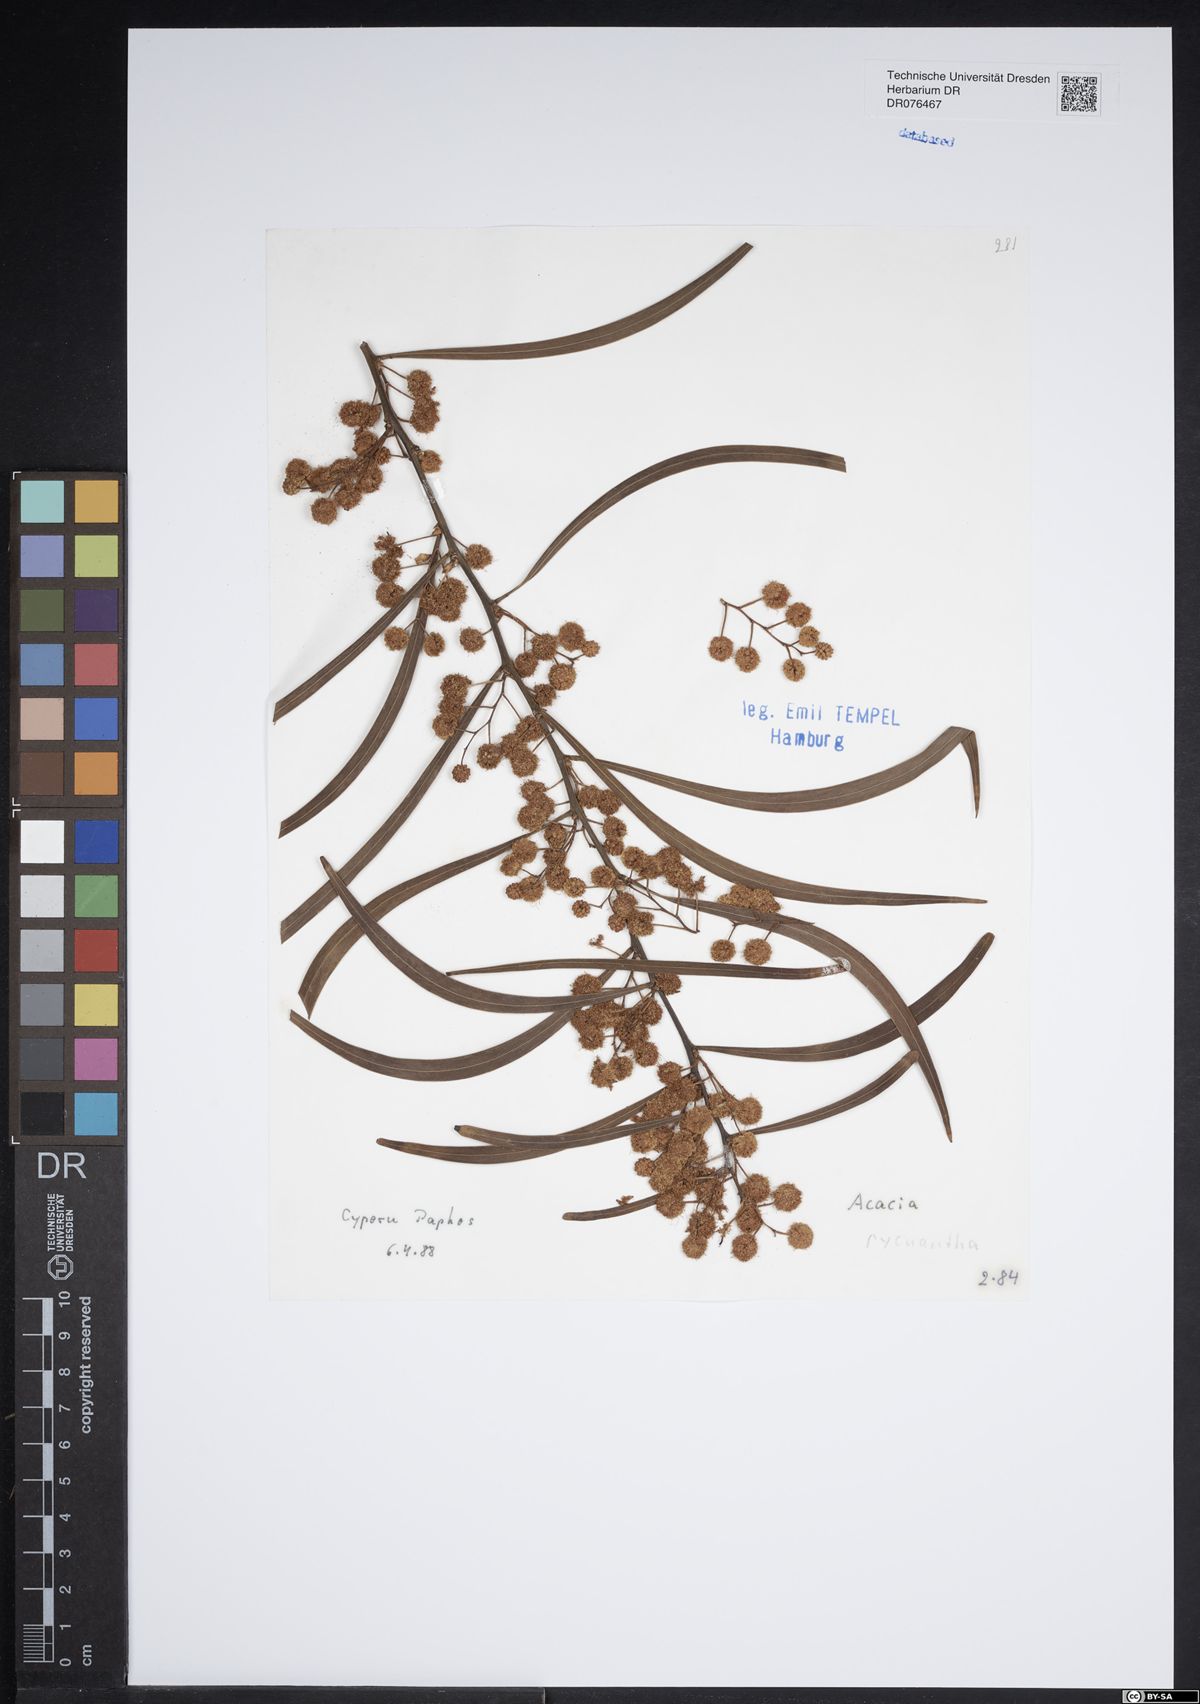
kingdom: Plantae
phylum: Tracheophyta
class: Magnoliopsida
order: Fabales
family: Fabaceae
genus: Acacia
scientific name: Acacia pycnantha
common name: Golden wattle
